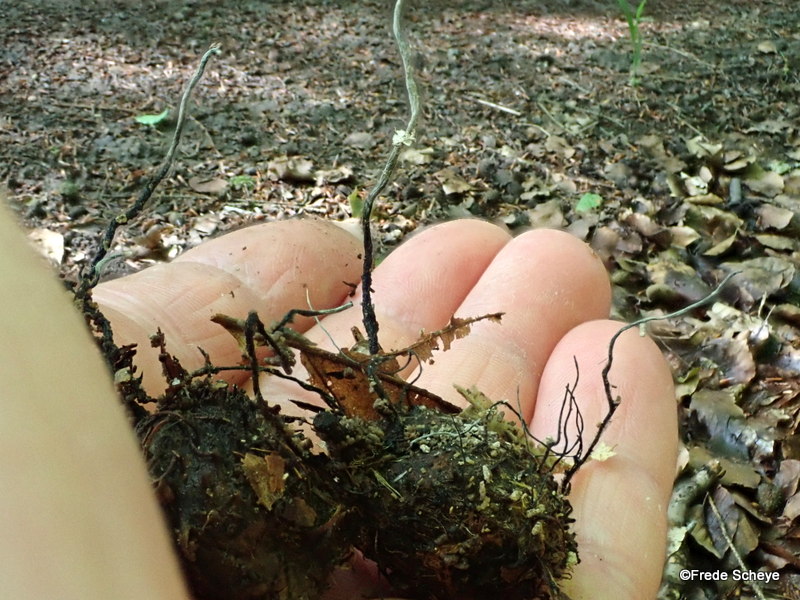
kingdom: Fungi
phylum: Ascomycota
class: Sordariomycetes
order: Xylariales
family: Xylariaceae
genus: Xylaria
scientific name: Xylaria carpophila
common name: bogskål-stødsvamp
